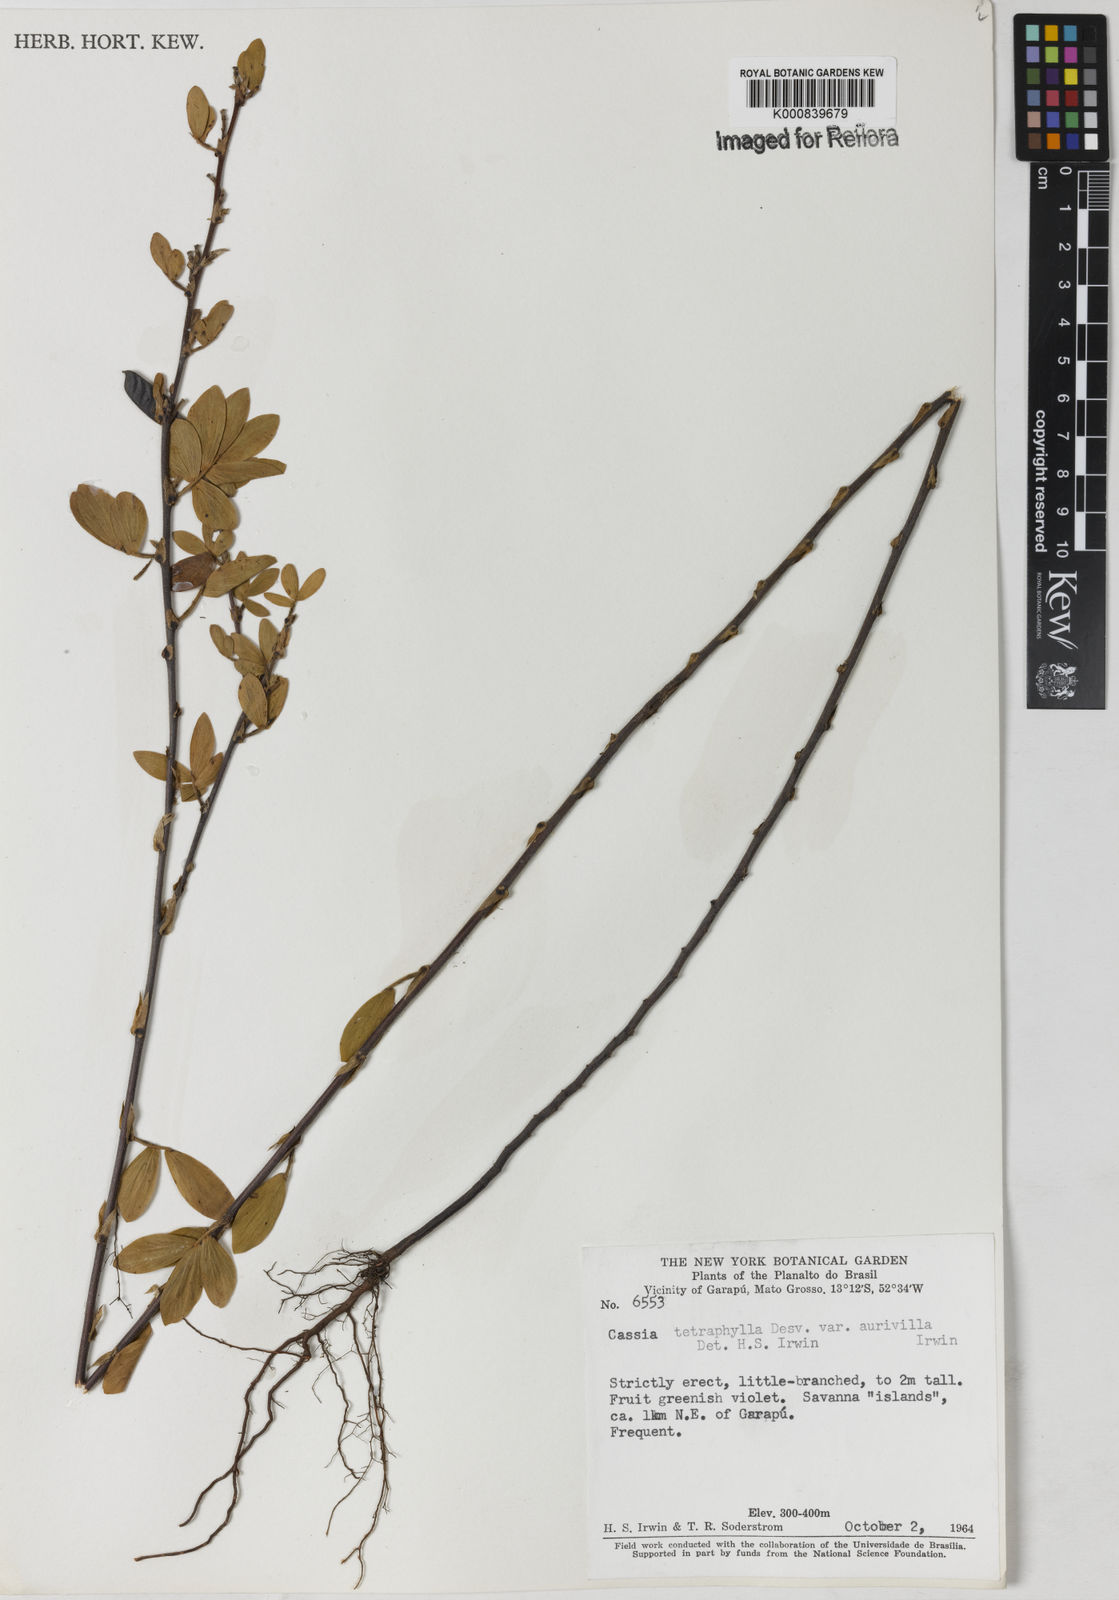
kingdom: Plantae
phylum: Tracheophyta
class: Magnoliopsida
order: Fabales
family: Fabaceae
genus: Chamaecrista
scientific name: Chamaecrista desvauxii
